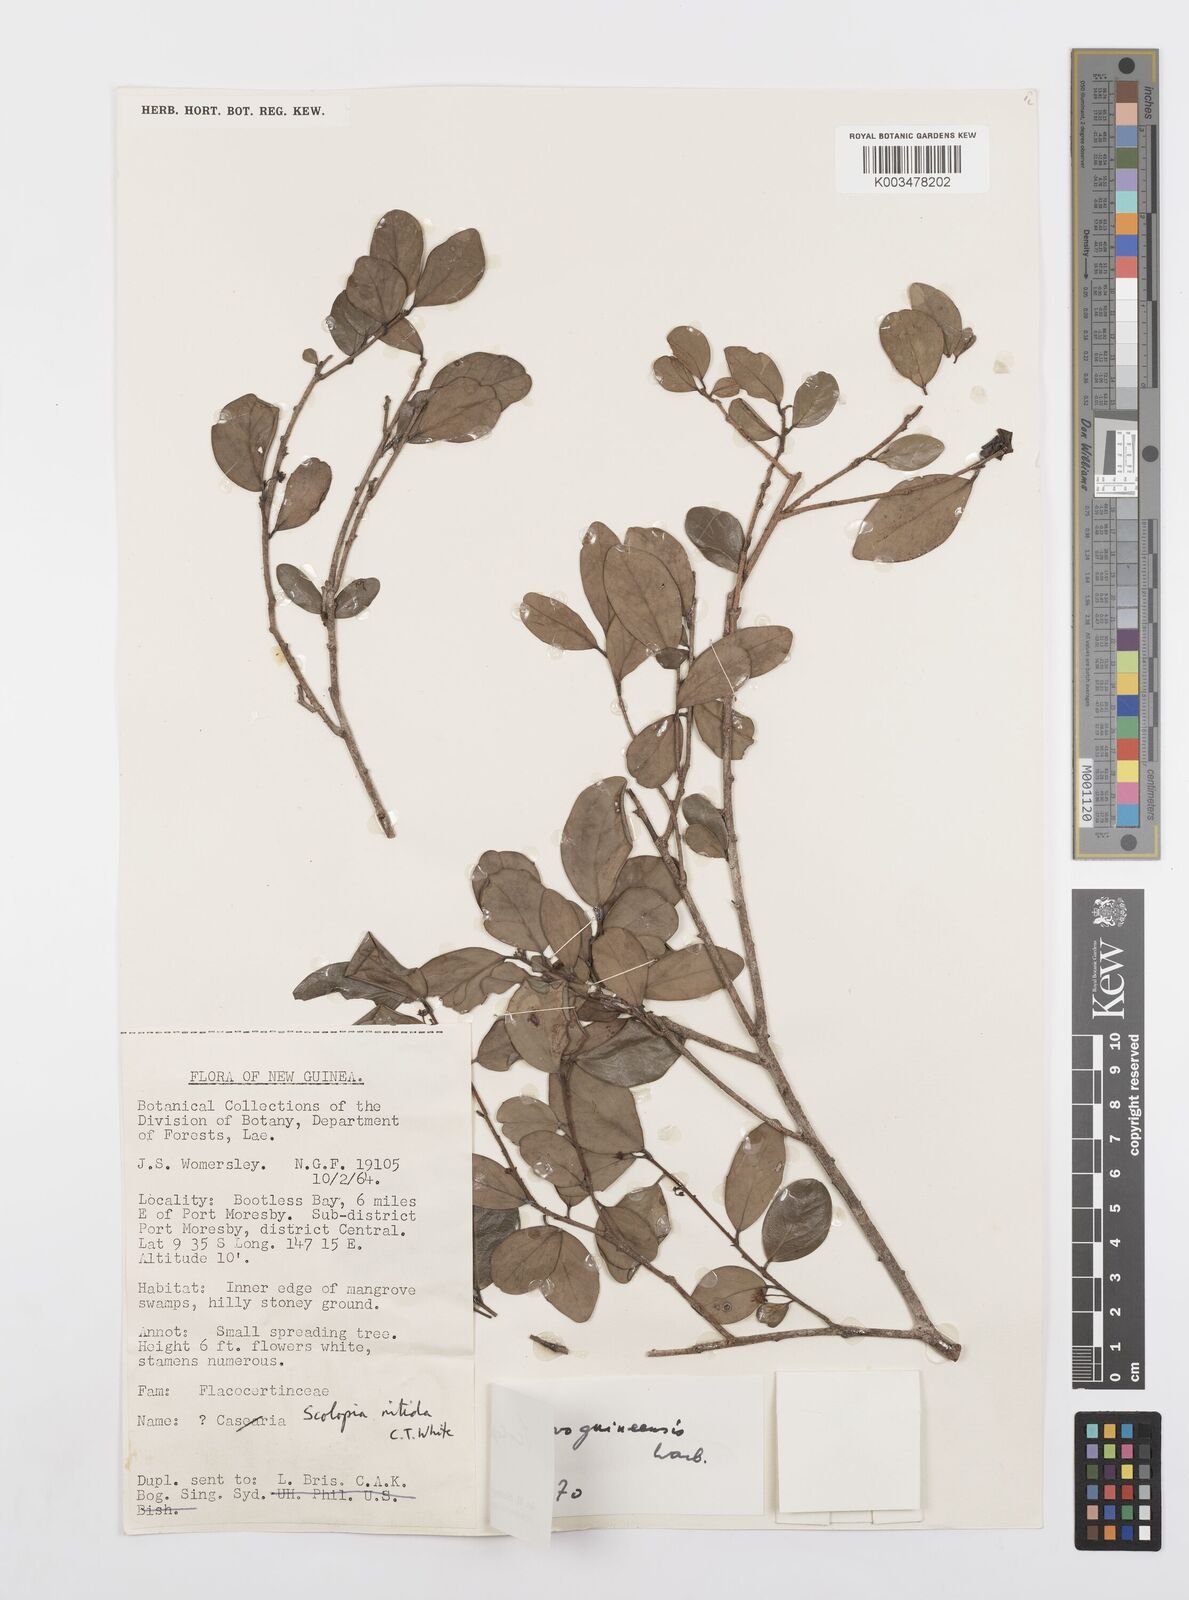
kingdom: Plantae
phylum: Tracheophyta
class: Magnoliopsida
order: Malpighiales
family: Salicaceae
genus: Scolopia
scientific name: Scolopia novoguineensis
